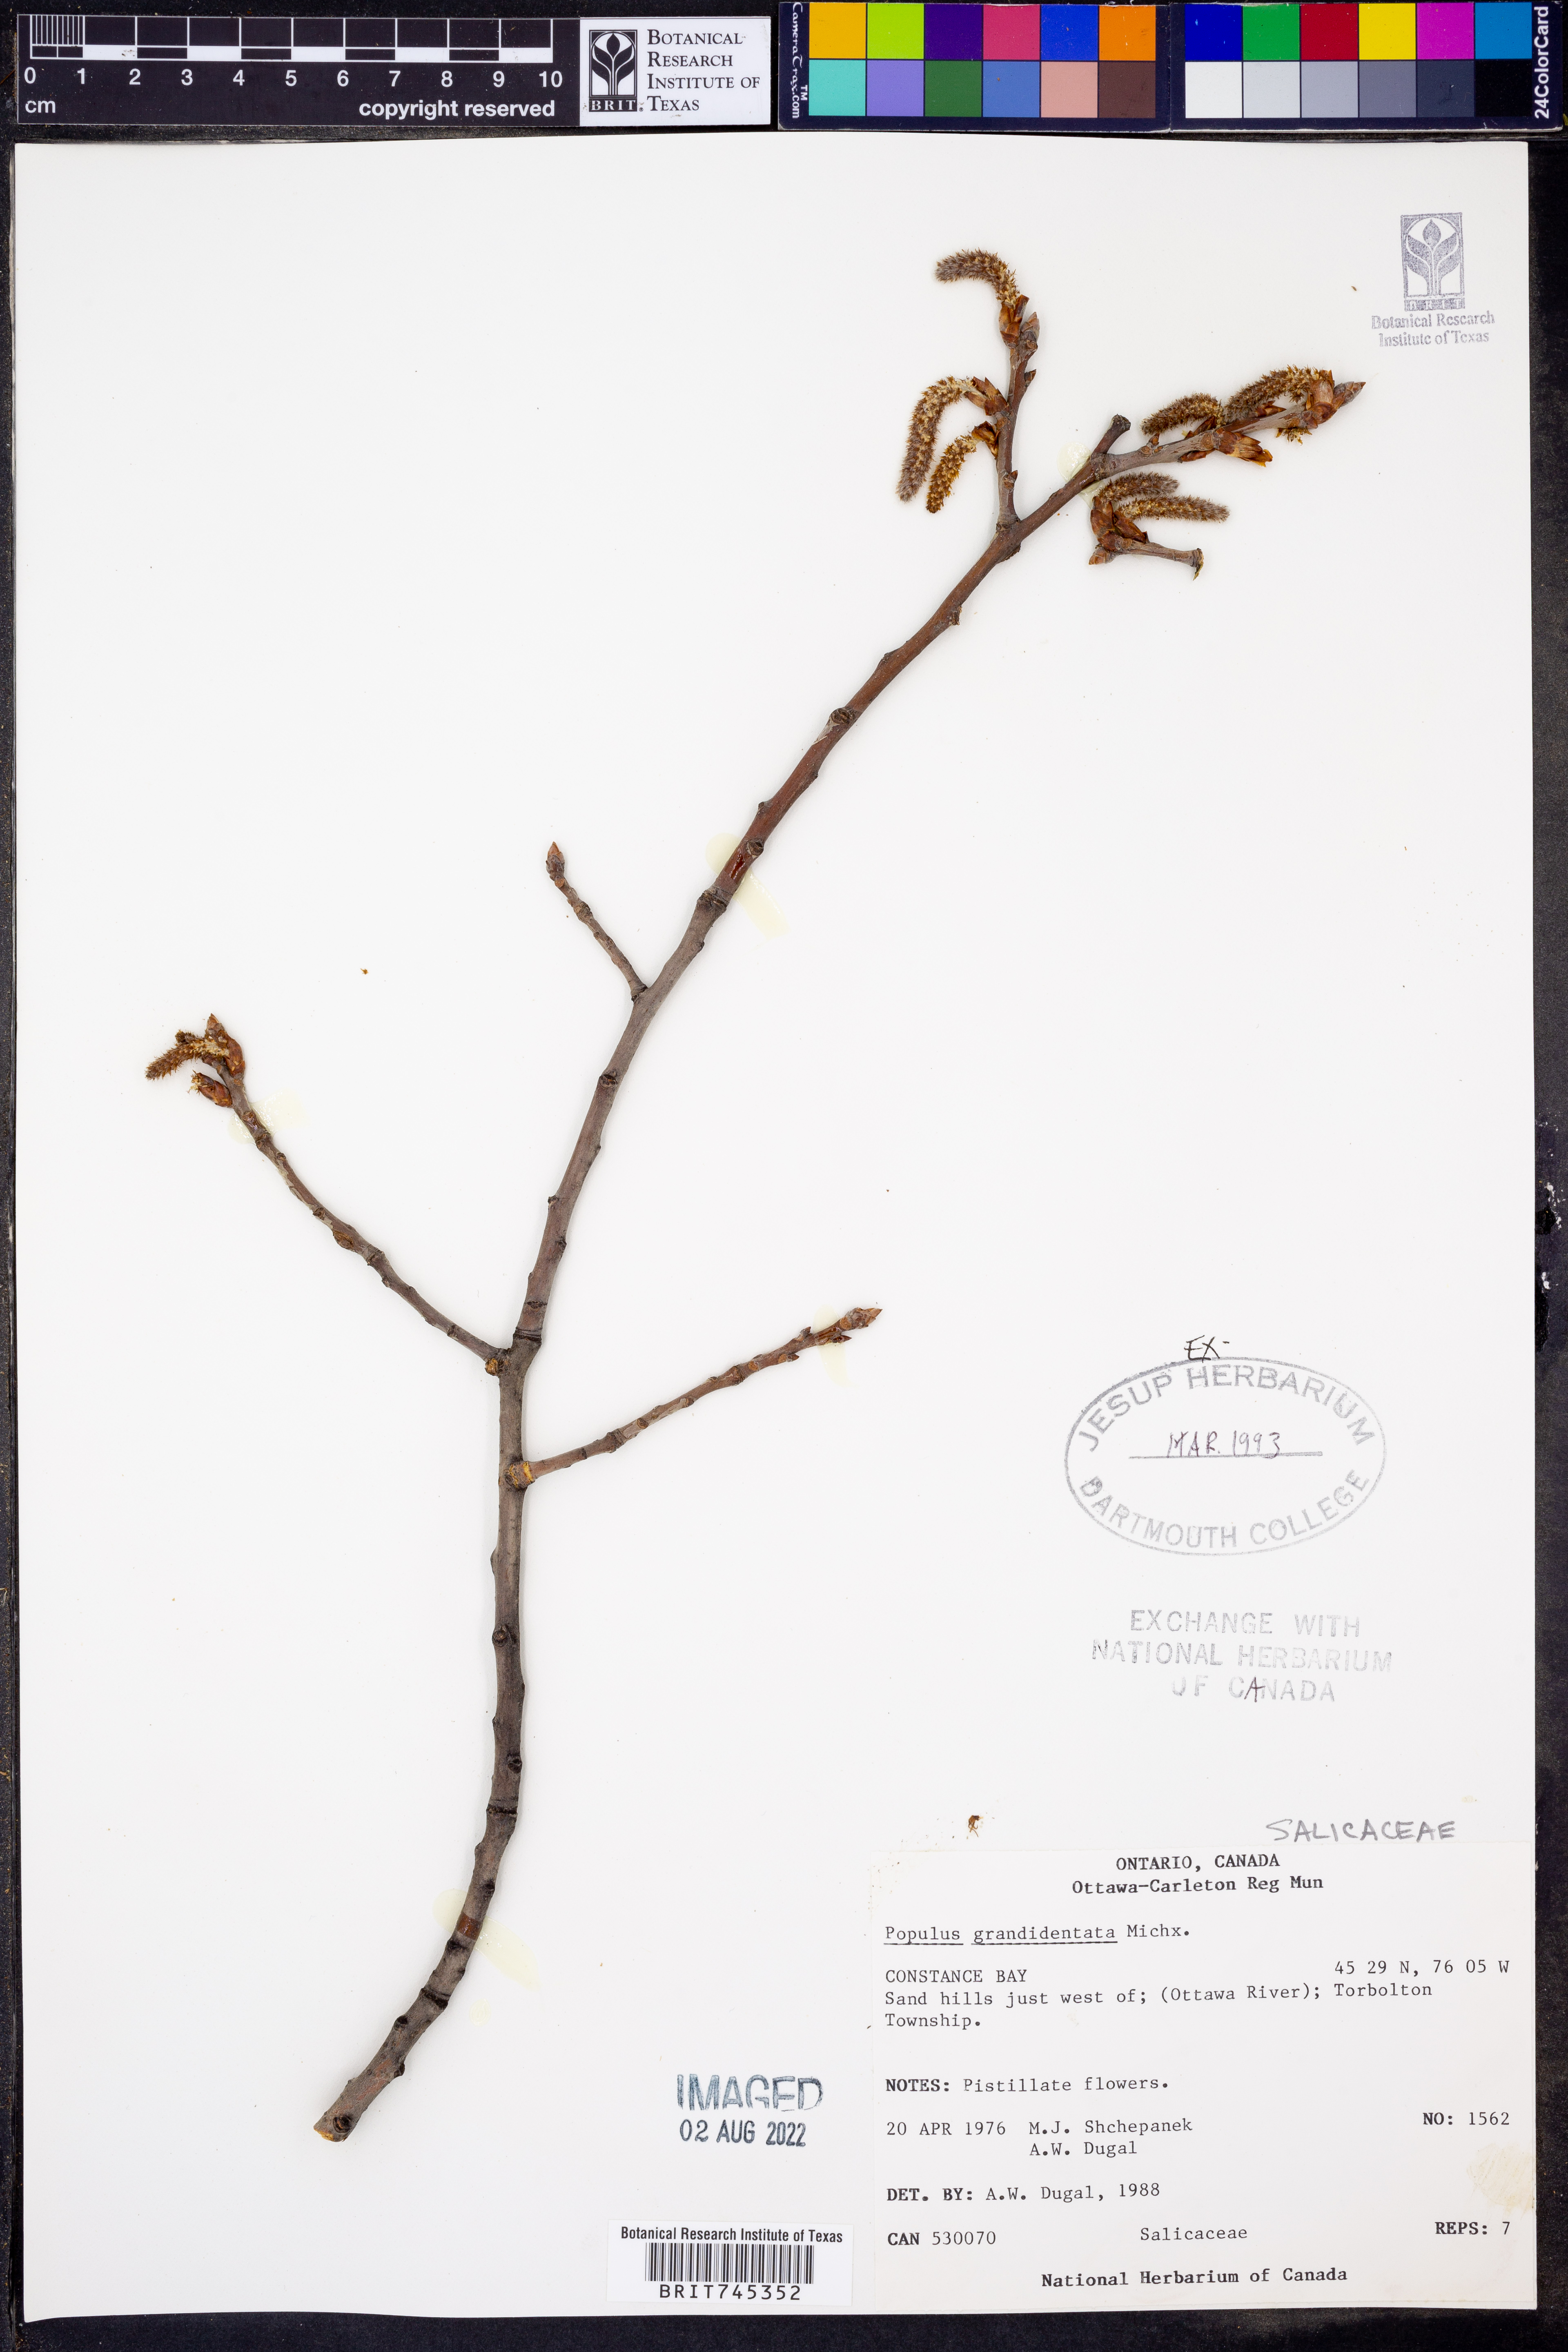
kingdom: Plantae
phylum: Tracheophyta
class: Magnoliopsida
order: Malpighiales
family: Salicaceae
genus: Populus
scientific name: Populus grandidentata
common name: Bigtooth aspen
